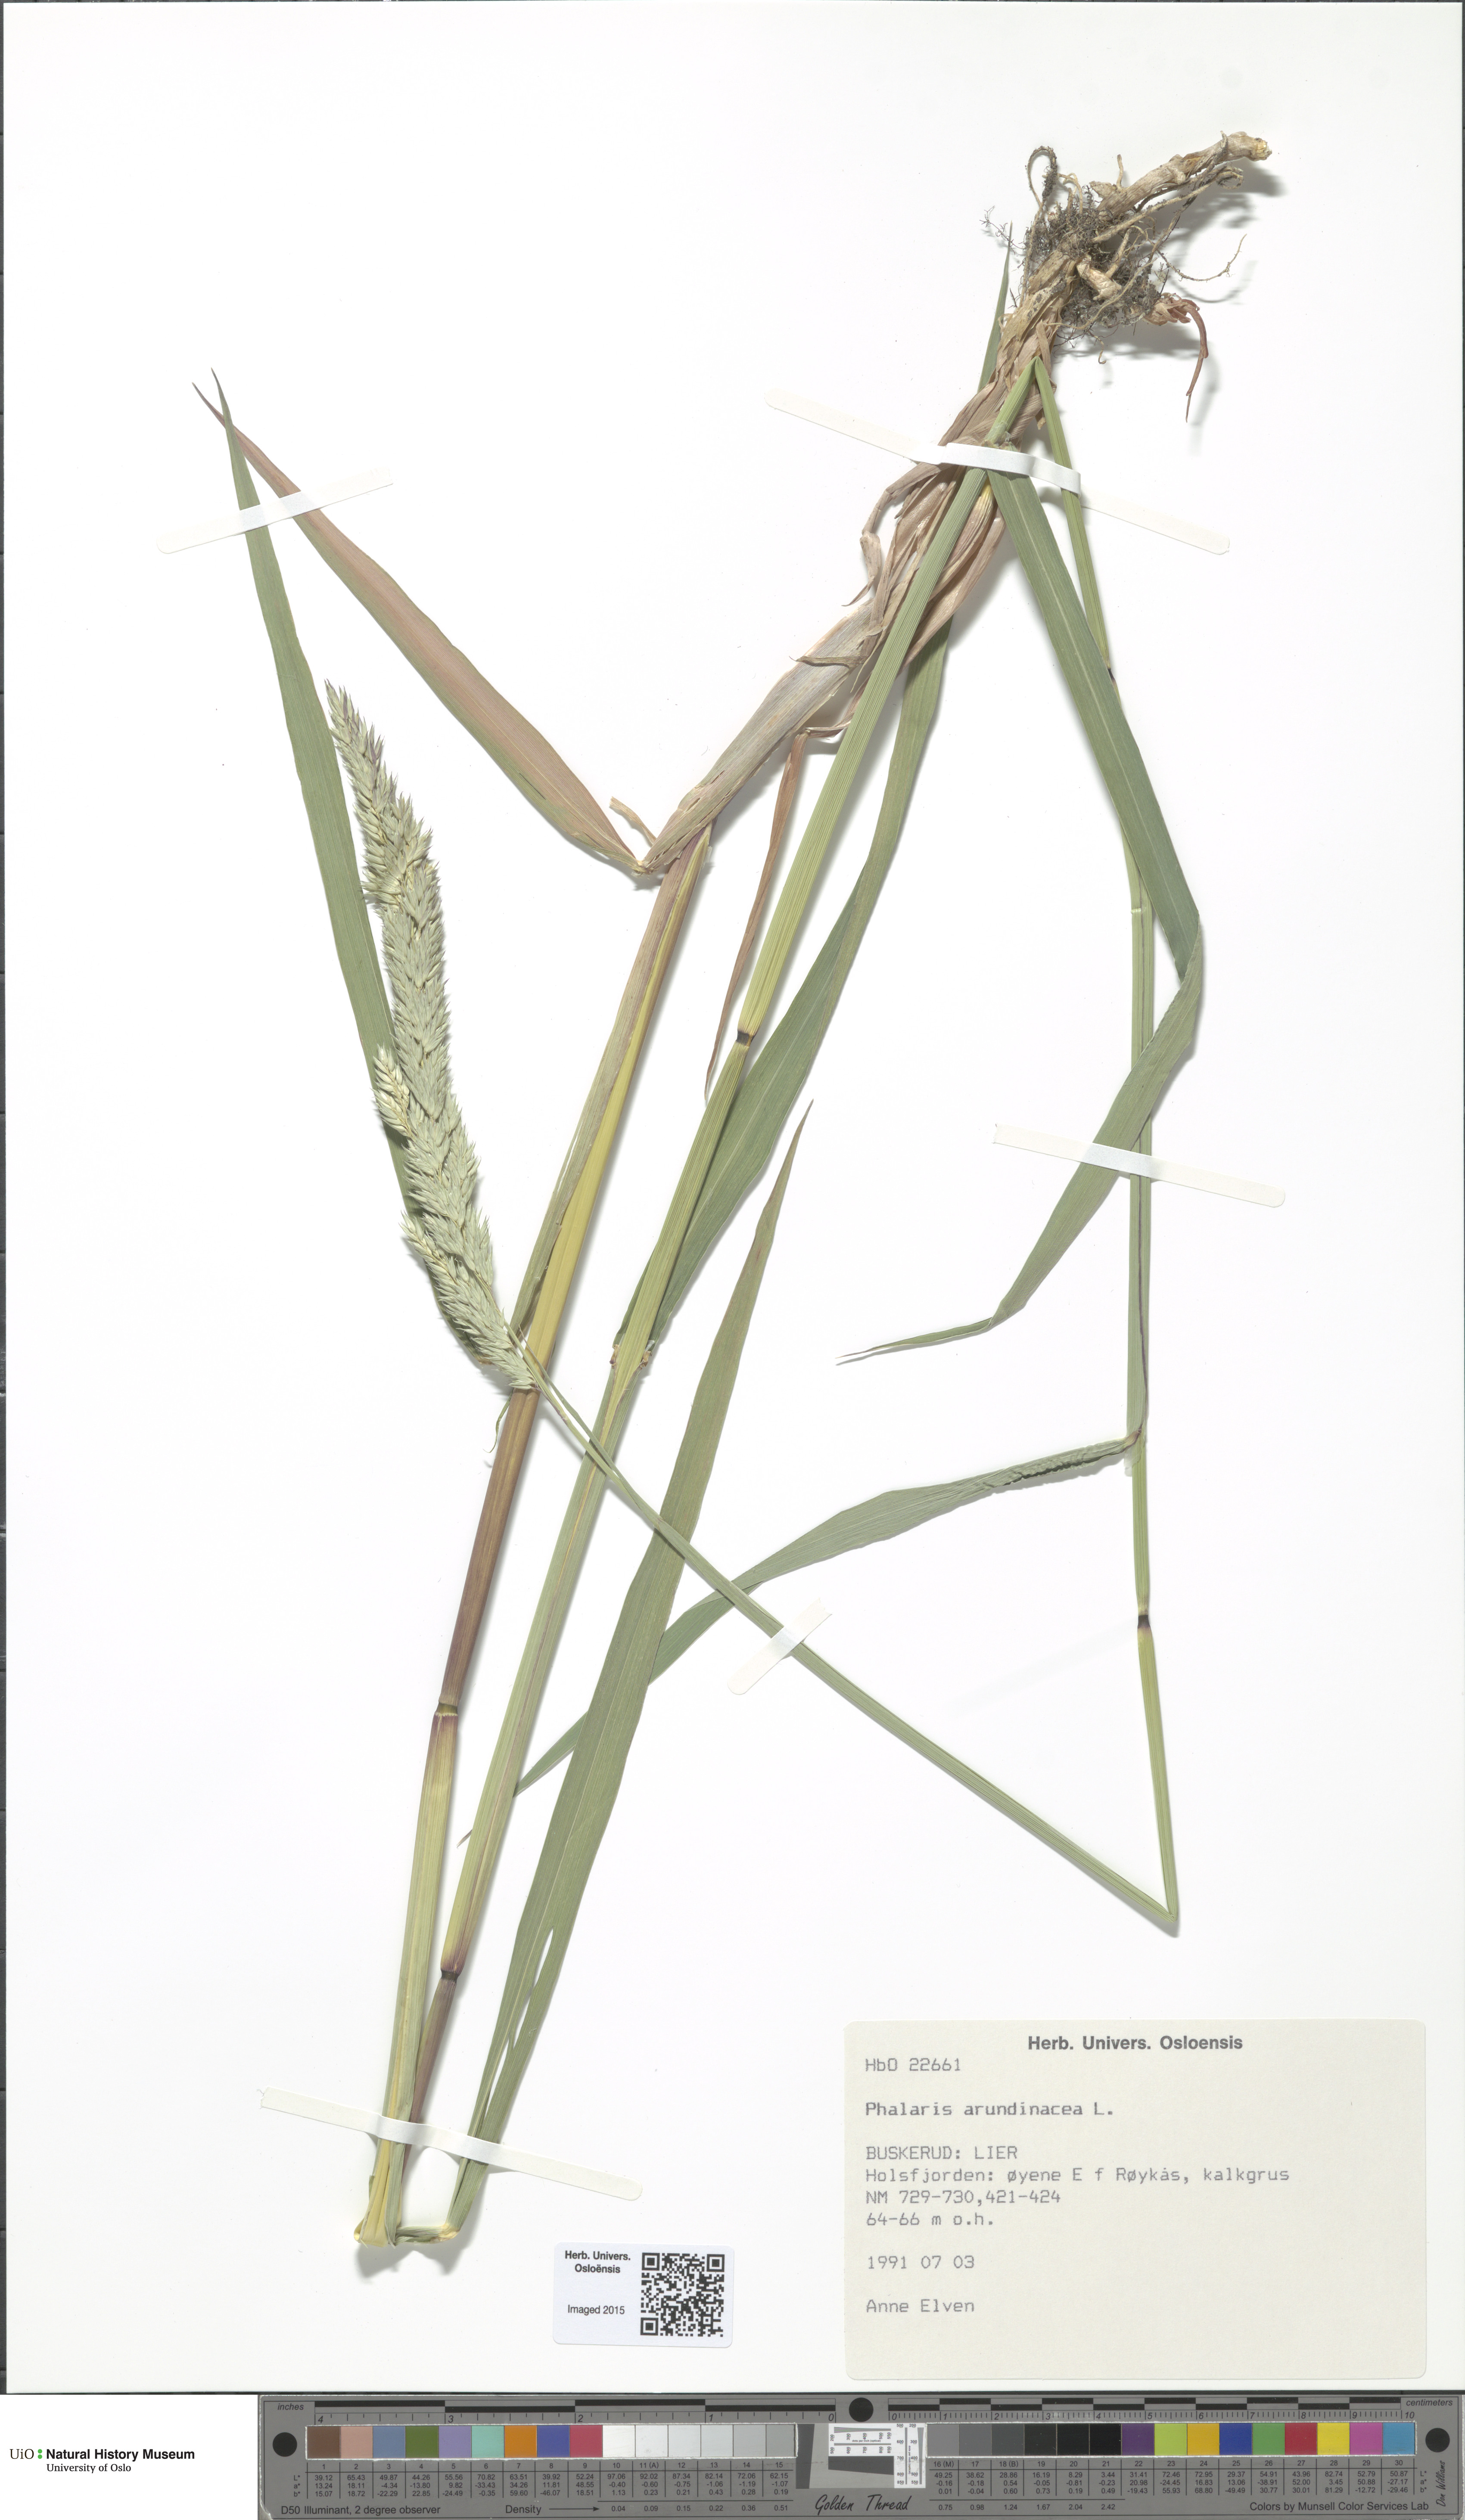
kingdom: Plantae
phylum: Tracheophyta
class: Liliopsida
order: Poales
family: Poaceae
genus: Phalaris
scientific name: Phalaris arundinacea
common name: Reed canary-grass
